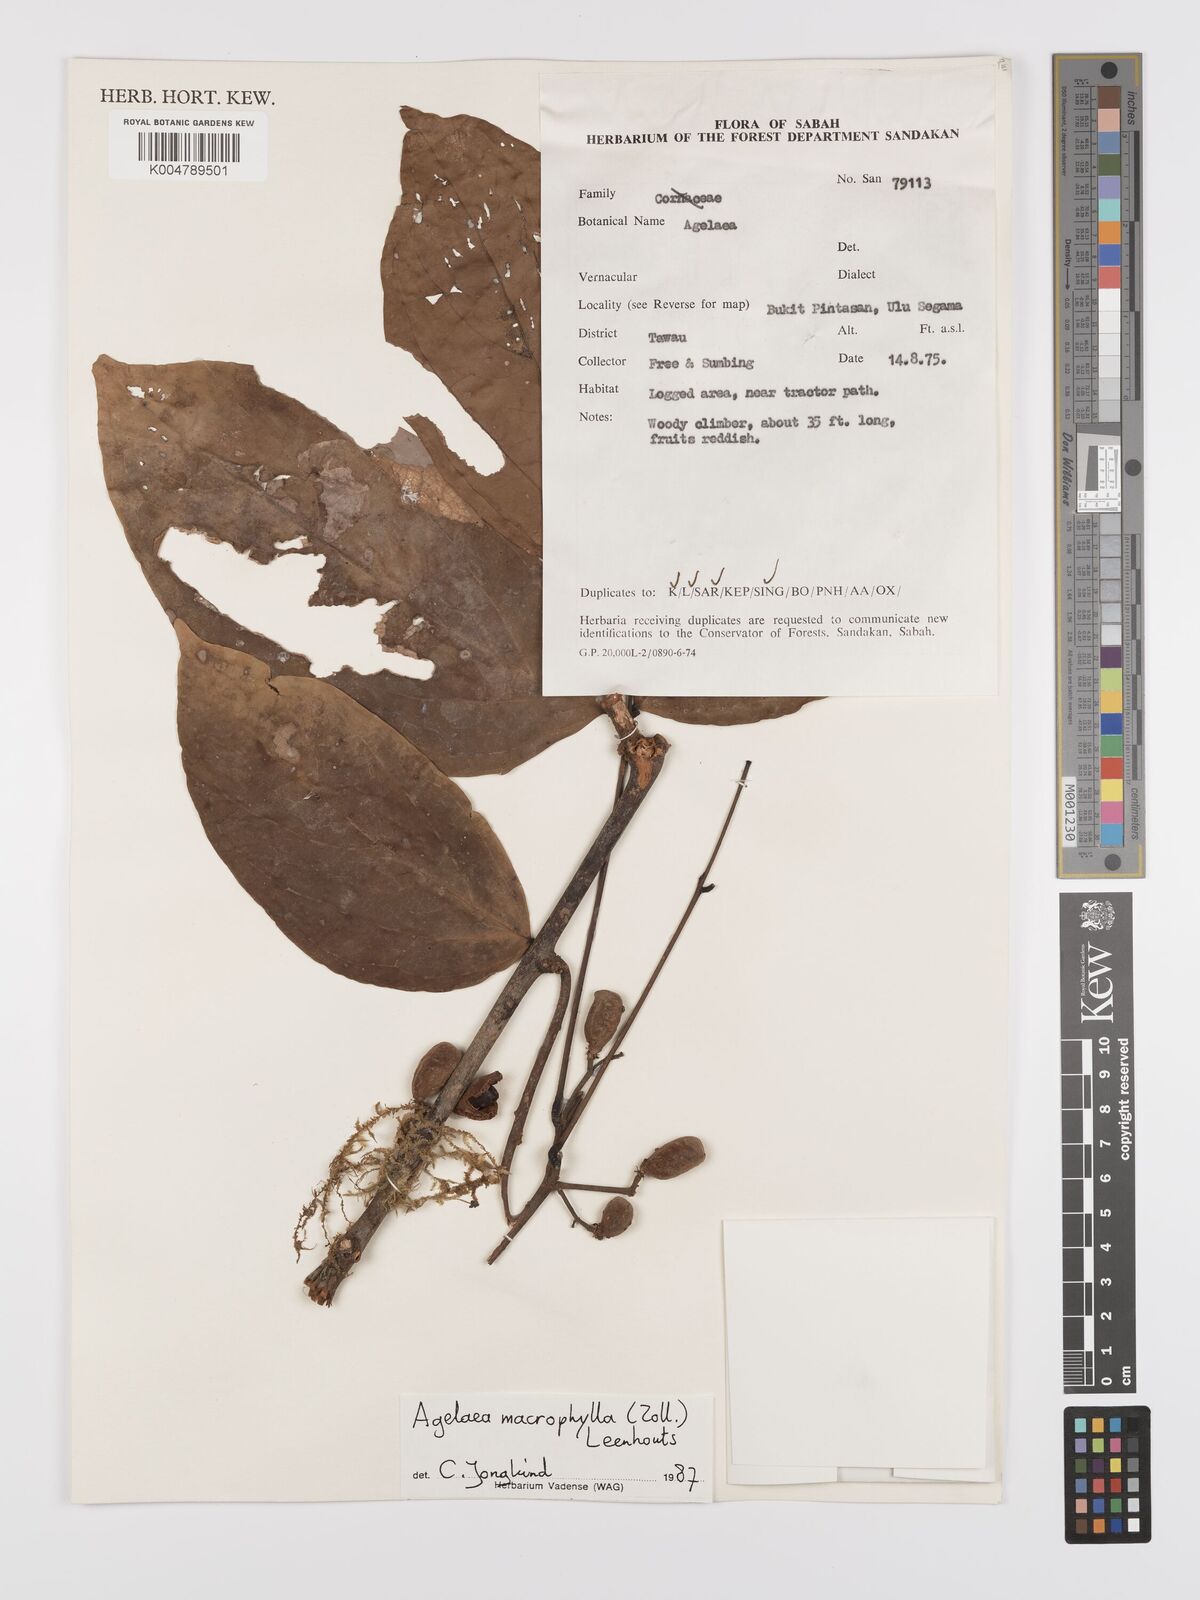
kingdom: Plantae
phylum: Tracheophyta
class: Magnoliopsida
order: Oxalidales
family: Connaraceae
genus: Agelaea
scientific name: Agelaea macrophylla
